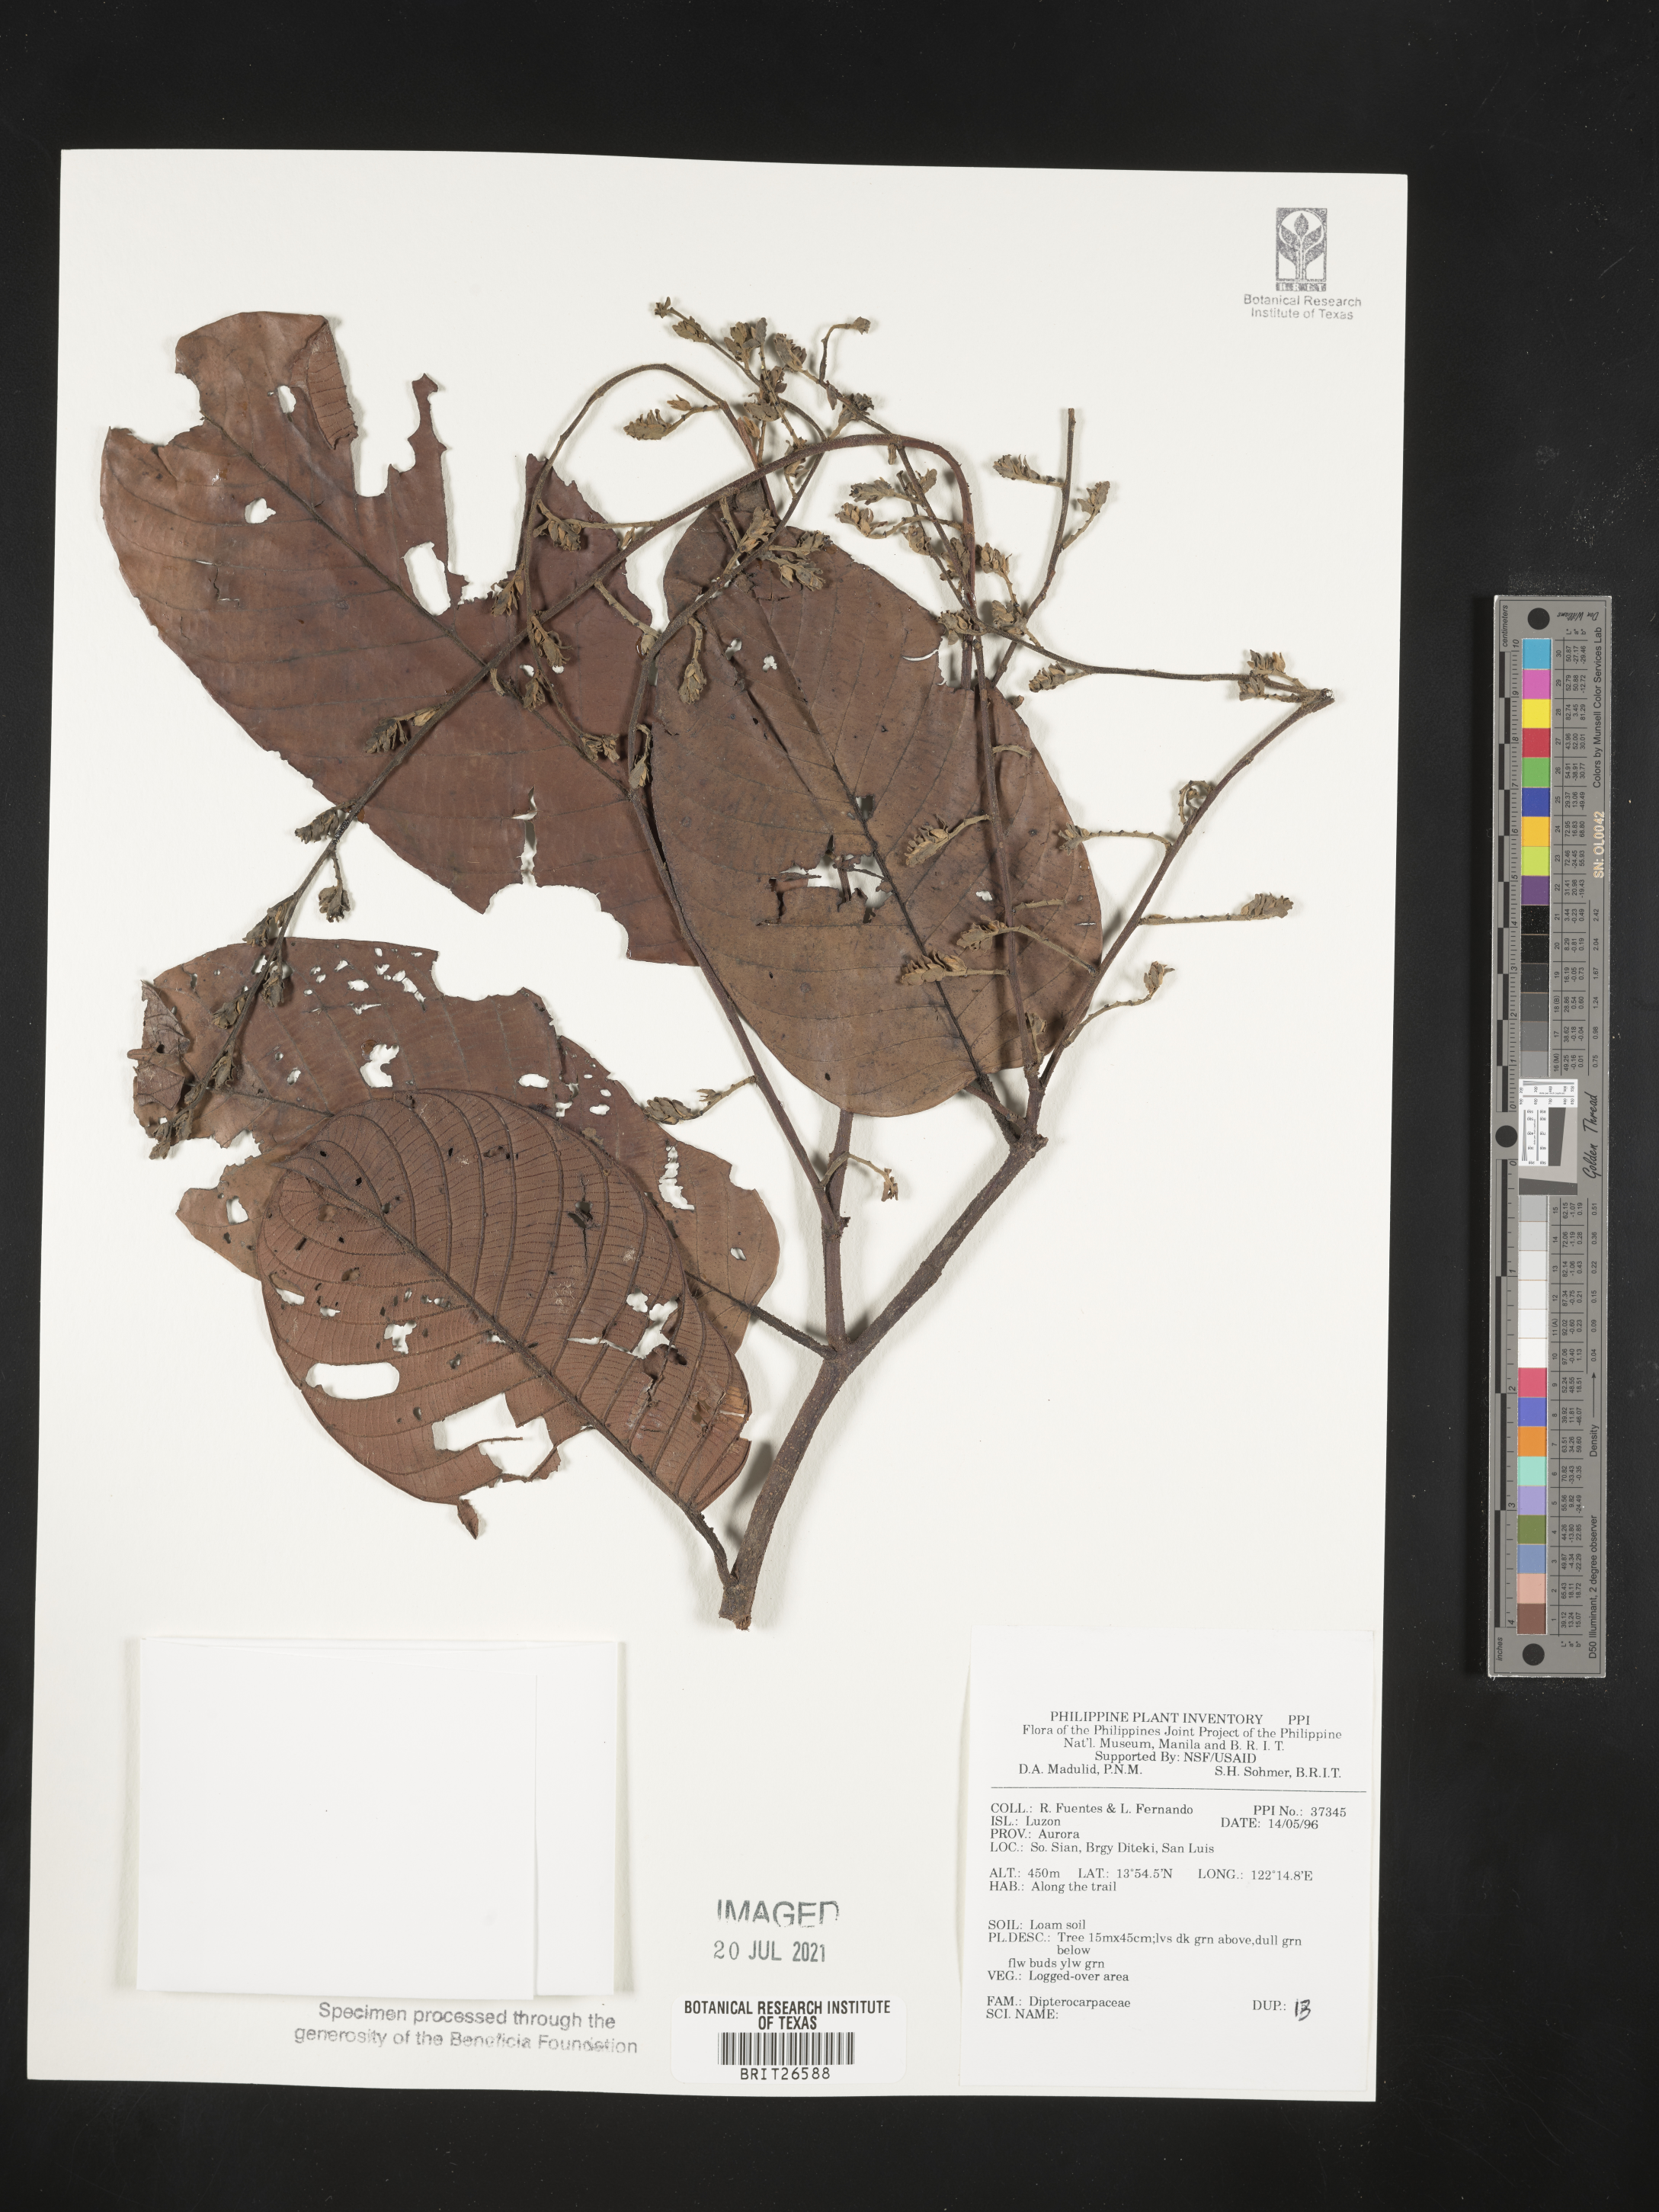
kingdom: Plantae
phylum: Tracheophyta
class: Magnoliopsida
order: Malvales
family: Dipterocarpaceae
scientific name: Dipterocarpaceae
